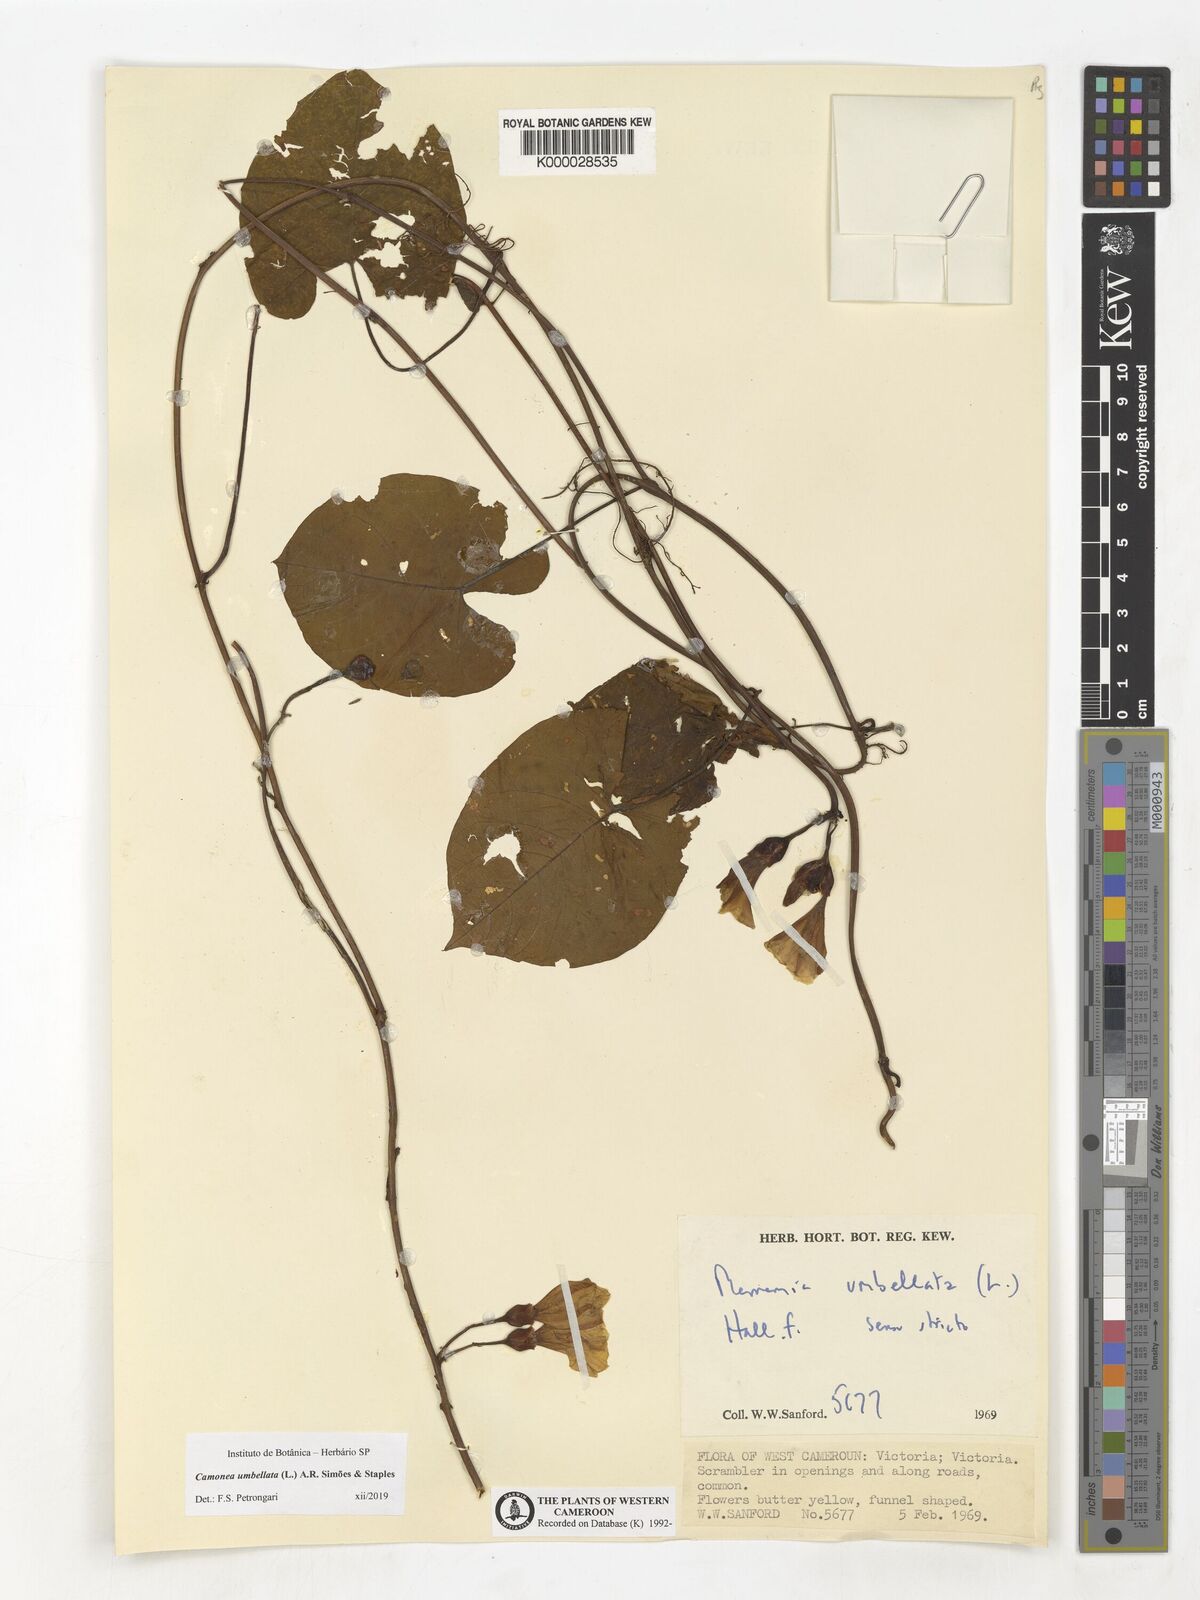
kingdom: Plantae
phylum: Tracheophyta
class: Magnoliopsida
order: Solanales
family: Convolvulaceae
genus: Camonea
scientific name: Camonea umbellata
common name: Hogvine
